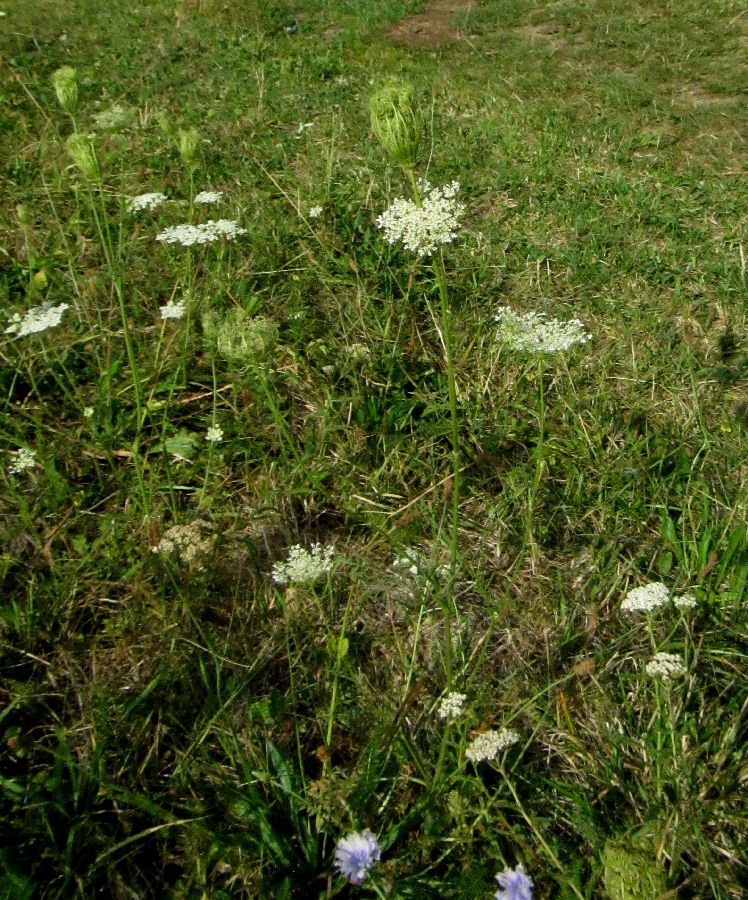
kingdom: Plantae
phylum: Tracheophyta
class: Magnoliopsida
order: Apiales
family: Apiaceae
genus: Daucus
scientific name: Daucus carota
